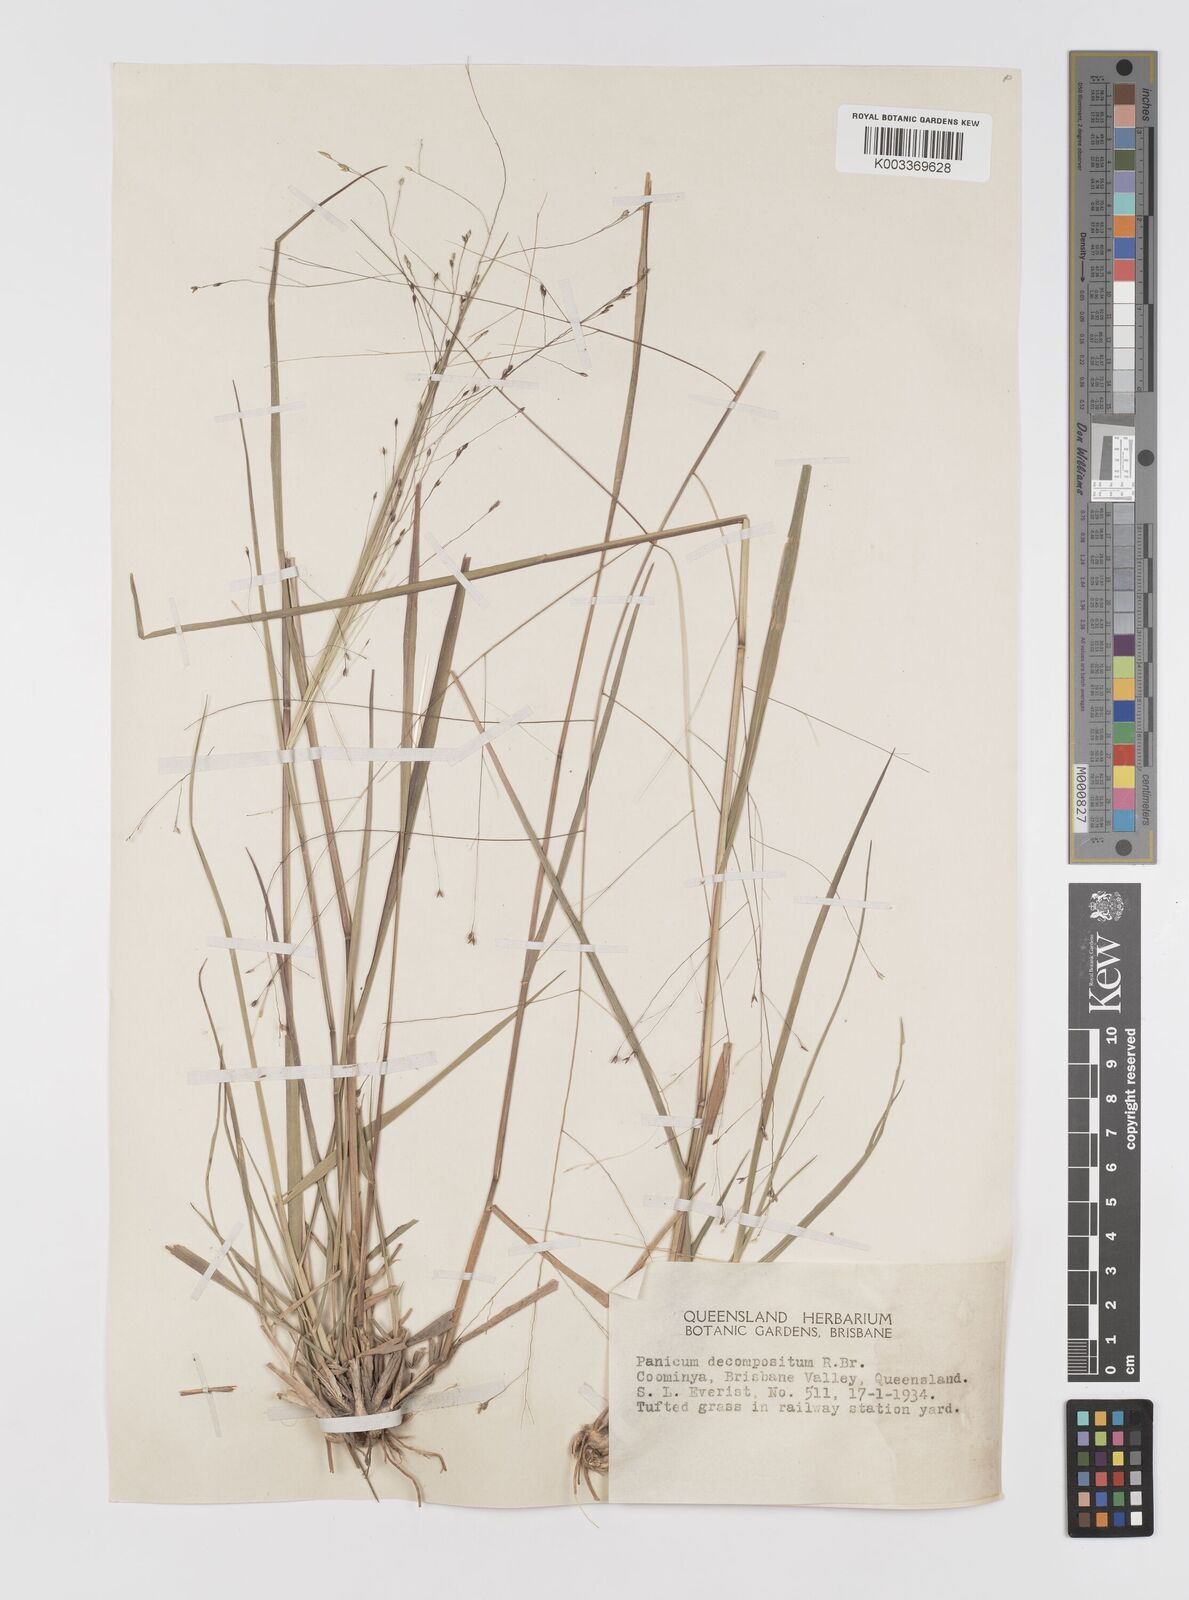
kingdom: Plantae
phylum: Tracheophyta
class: Liliopsida
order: Poales
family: Poaceae
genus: Panicum
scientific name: Panicum decompositum
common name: Australian millet
